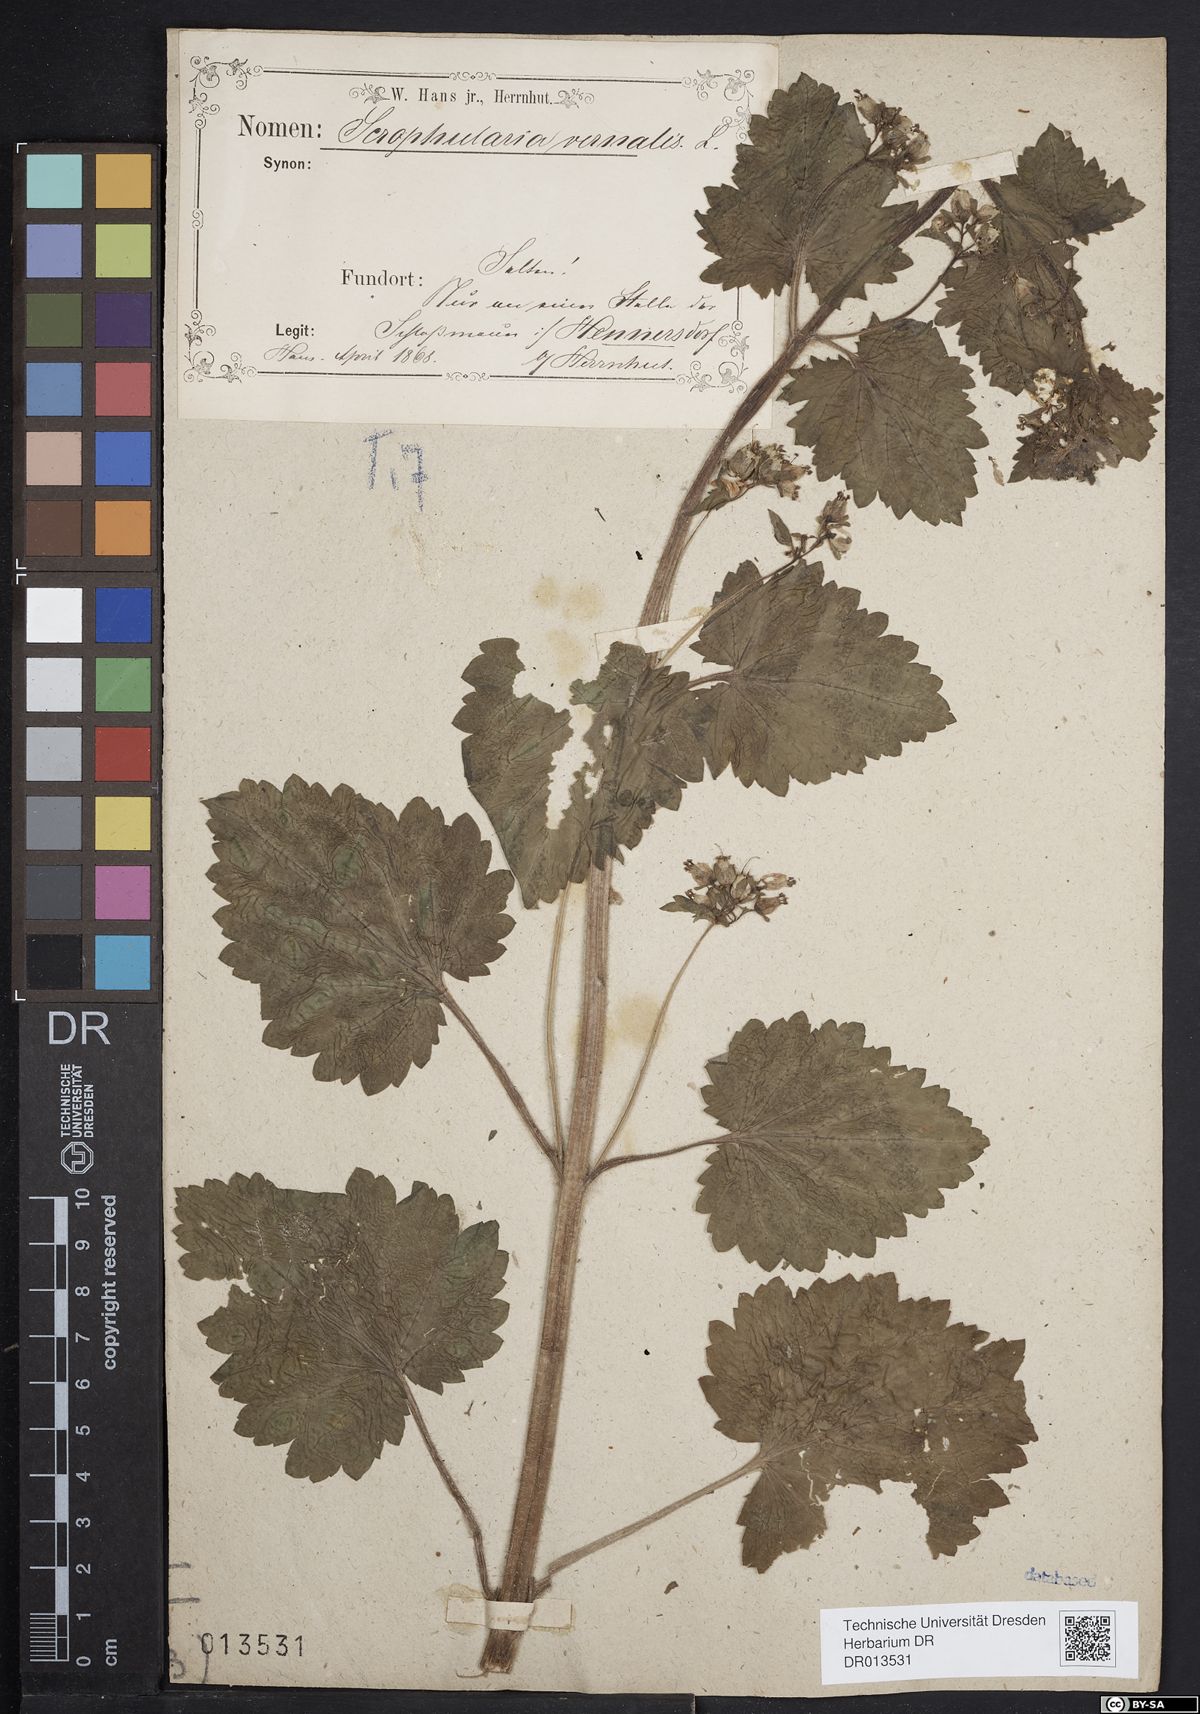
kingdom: Plantae
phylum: Tracheophyta
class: Magnoliopsida
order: Lamiales
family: Scrophulariaceae
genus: Scrophularia
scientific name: Scrophularia vernalis
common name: Yellow figwort
